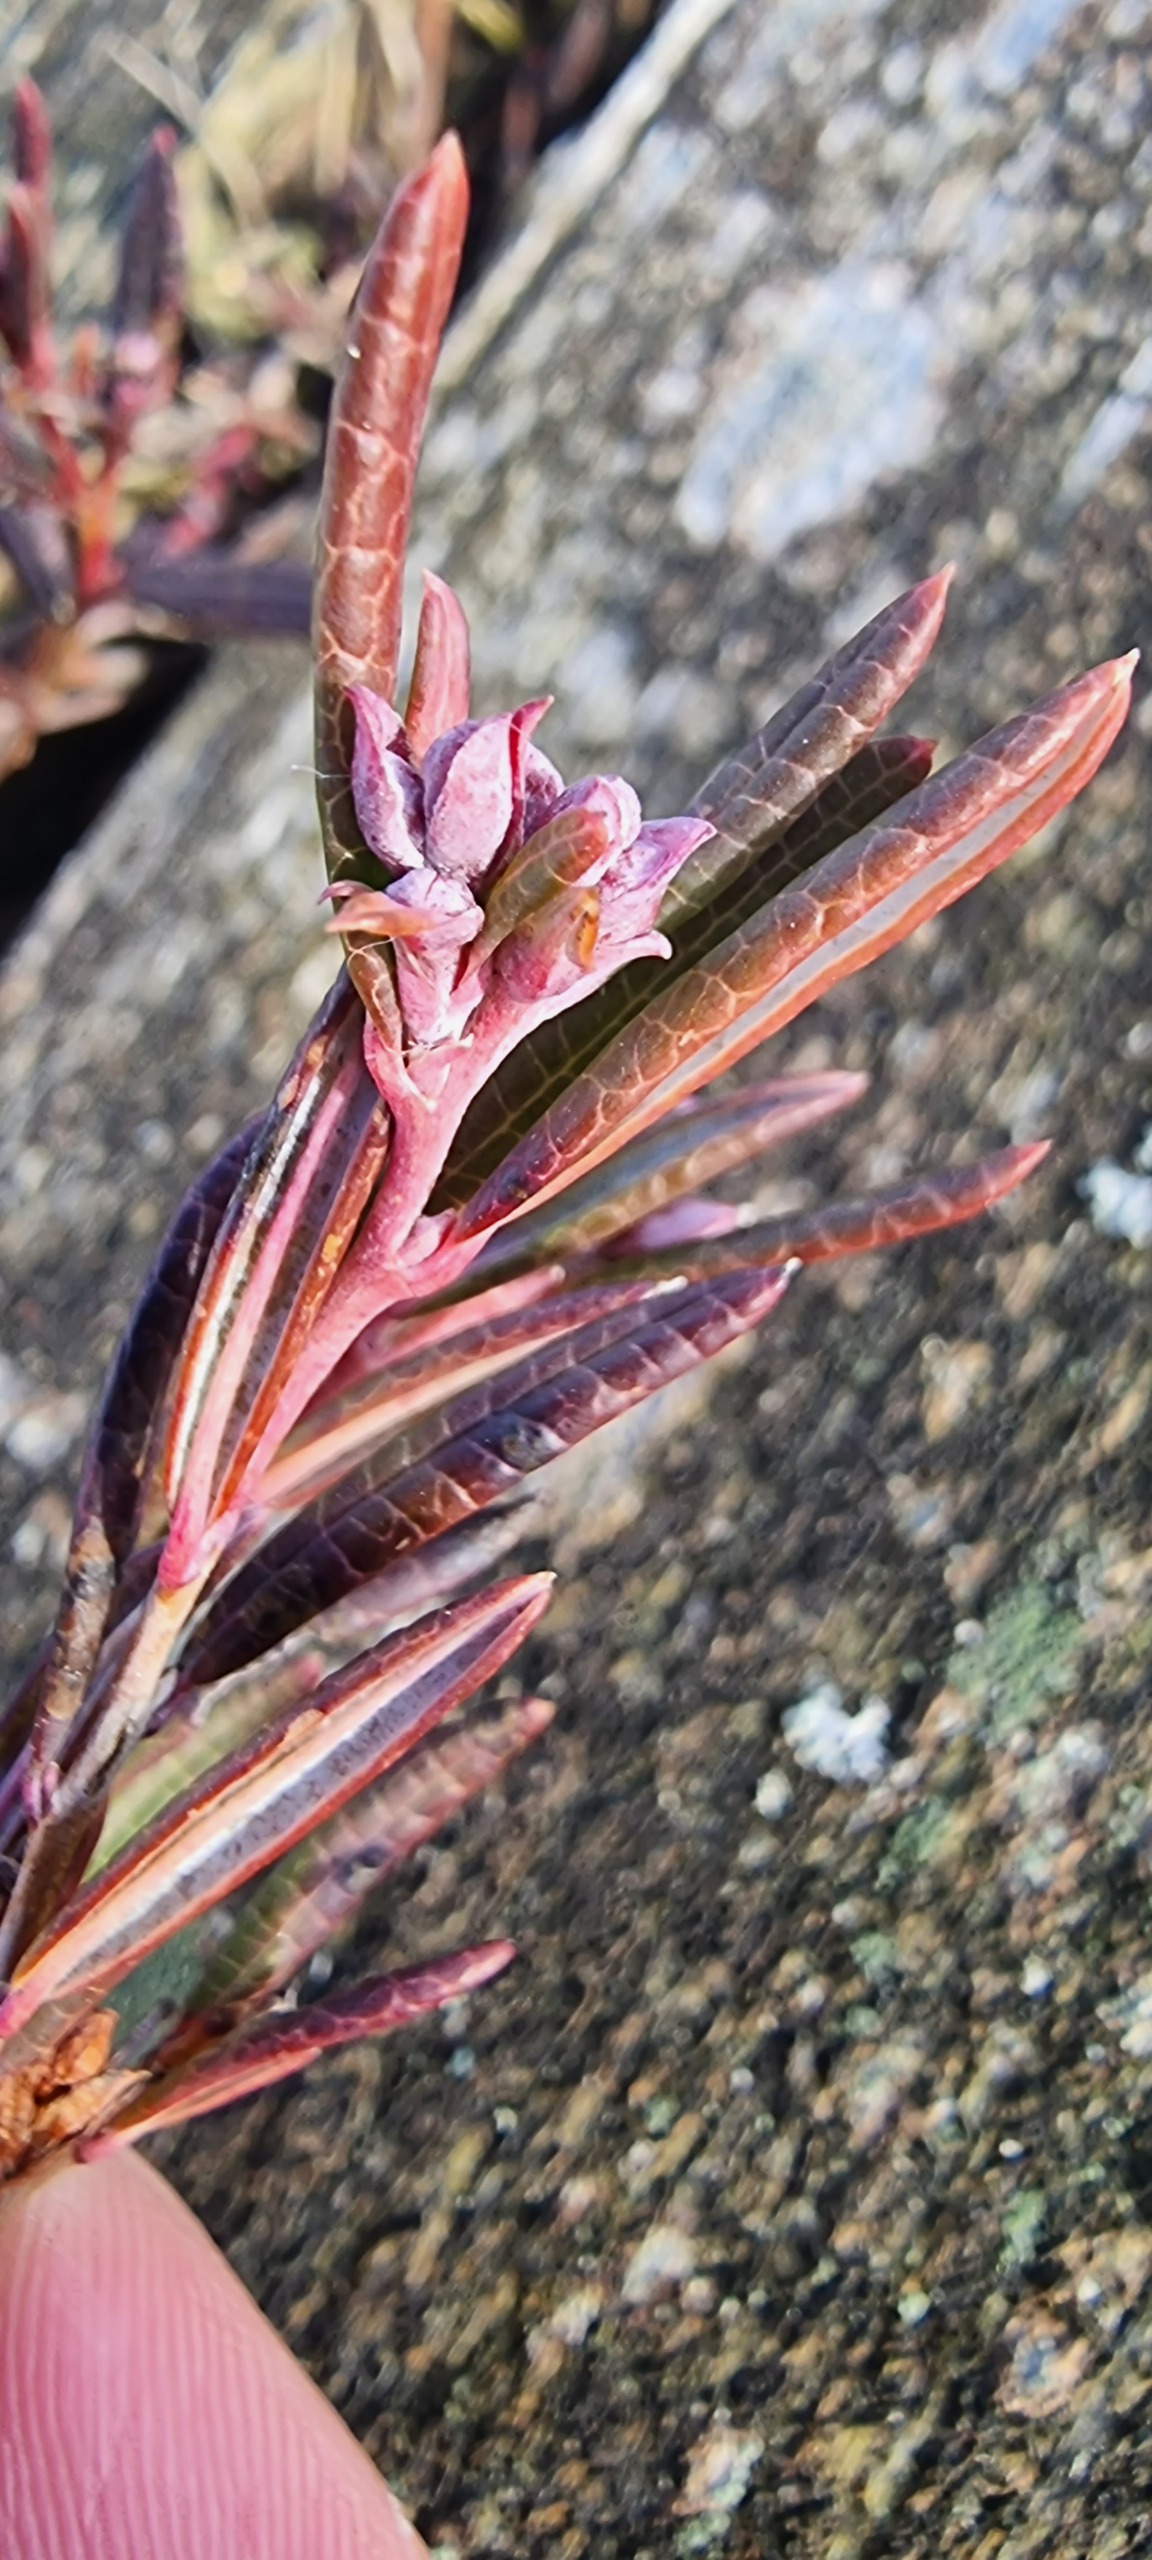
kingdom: Plantae
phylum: Tracheophyta
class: Magnoliopsida
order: Ericales
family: Ericaceae
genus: Andromeda
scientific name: Andromeda polifolia
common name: Rosmarinlyng
